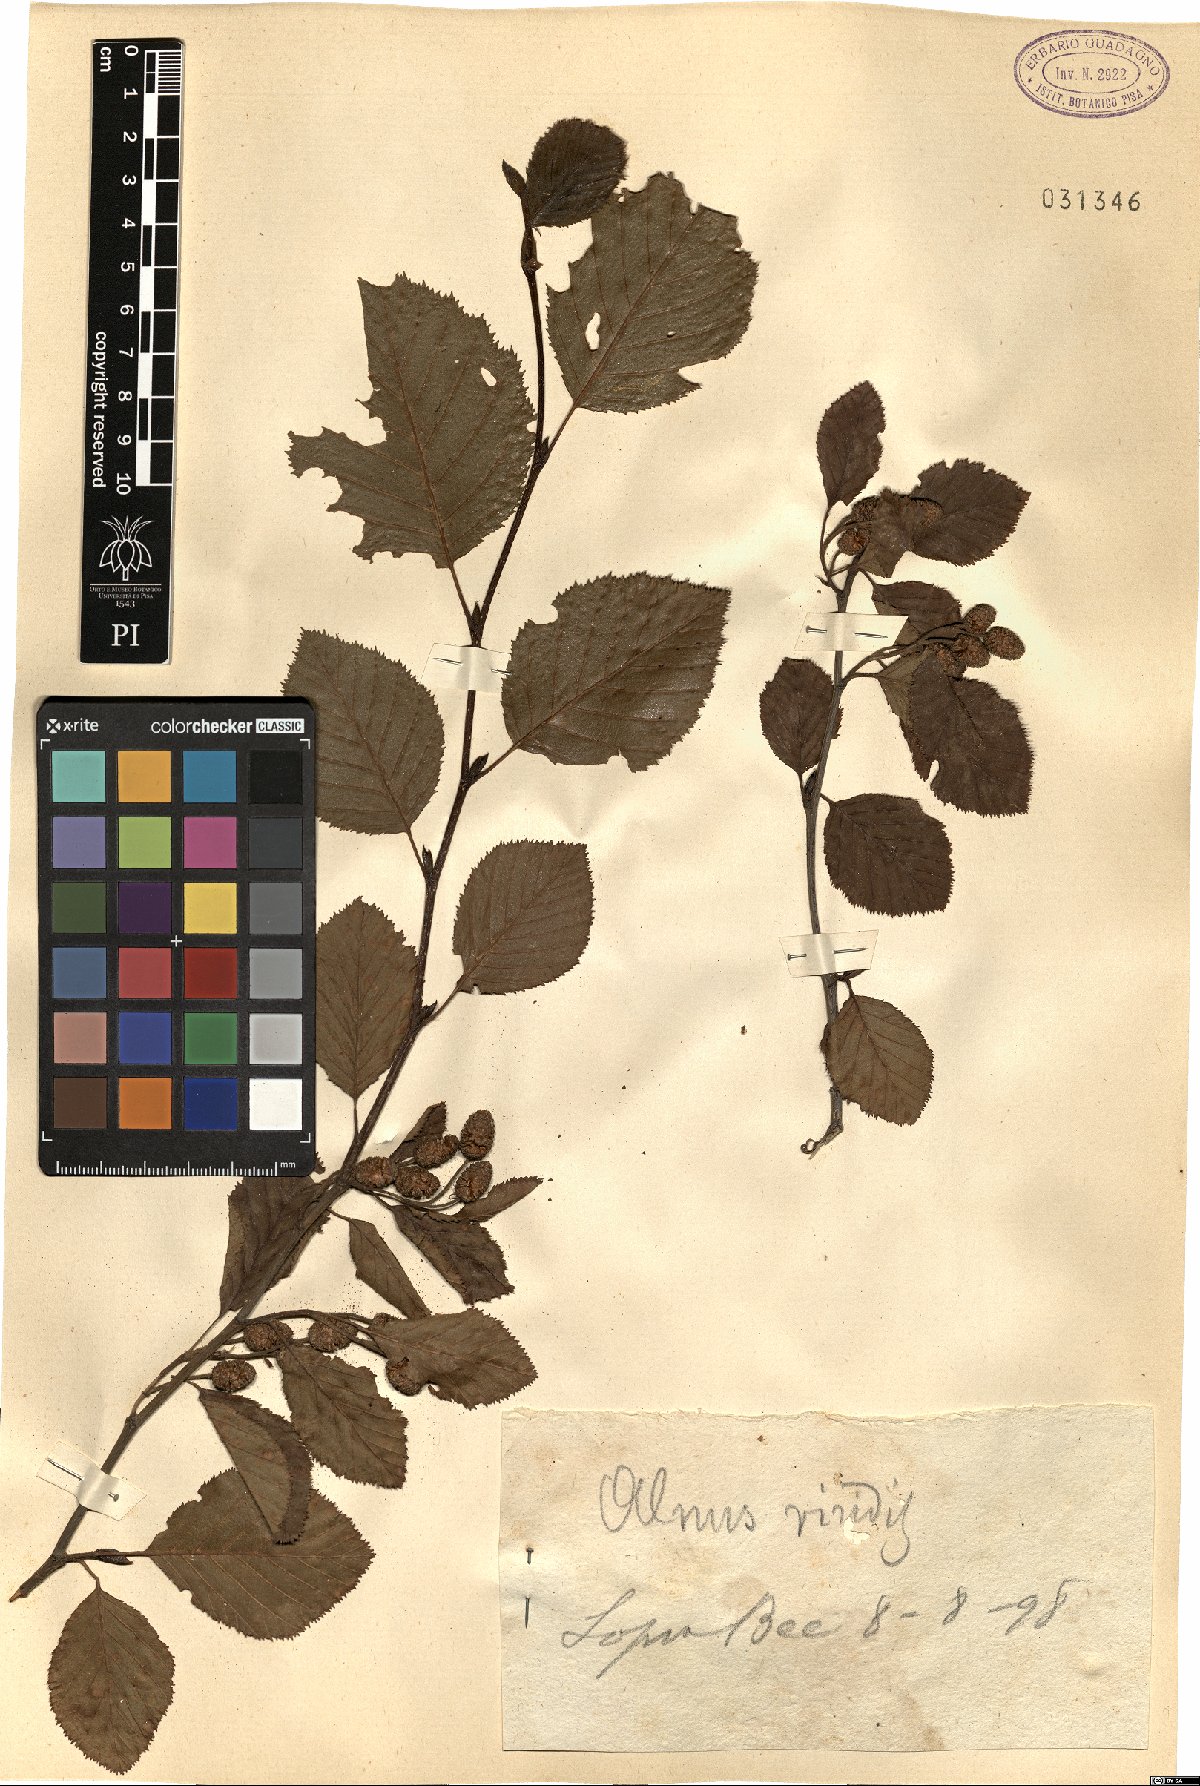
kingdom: Plantae
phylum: Tracheophyta
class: Magnoliopsida
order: Fagales
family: Betulaceae
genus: Alnus
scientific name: Alnus alnobetula
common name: Green alder
